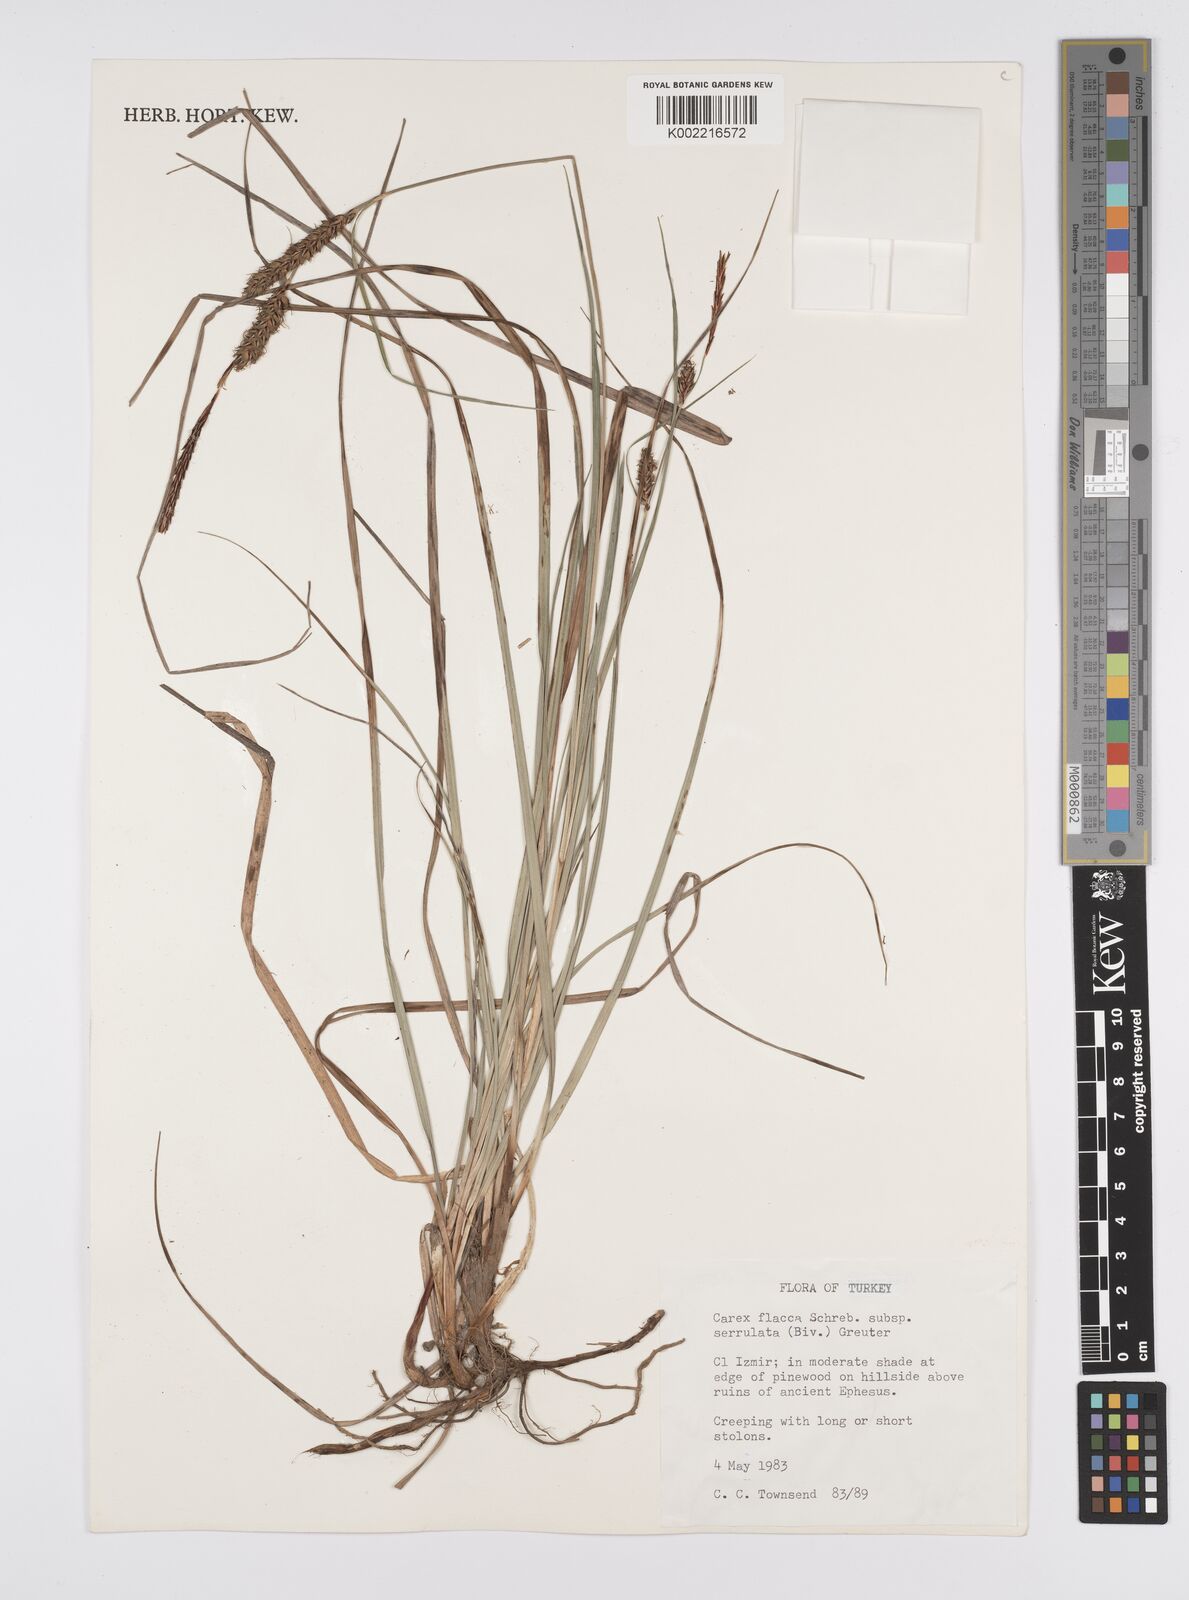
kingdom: Plantae
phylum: Tracheophyta
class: Liliopsida
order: Poales
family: Cyperaceae
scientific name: Cyperaceae
